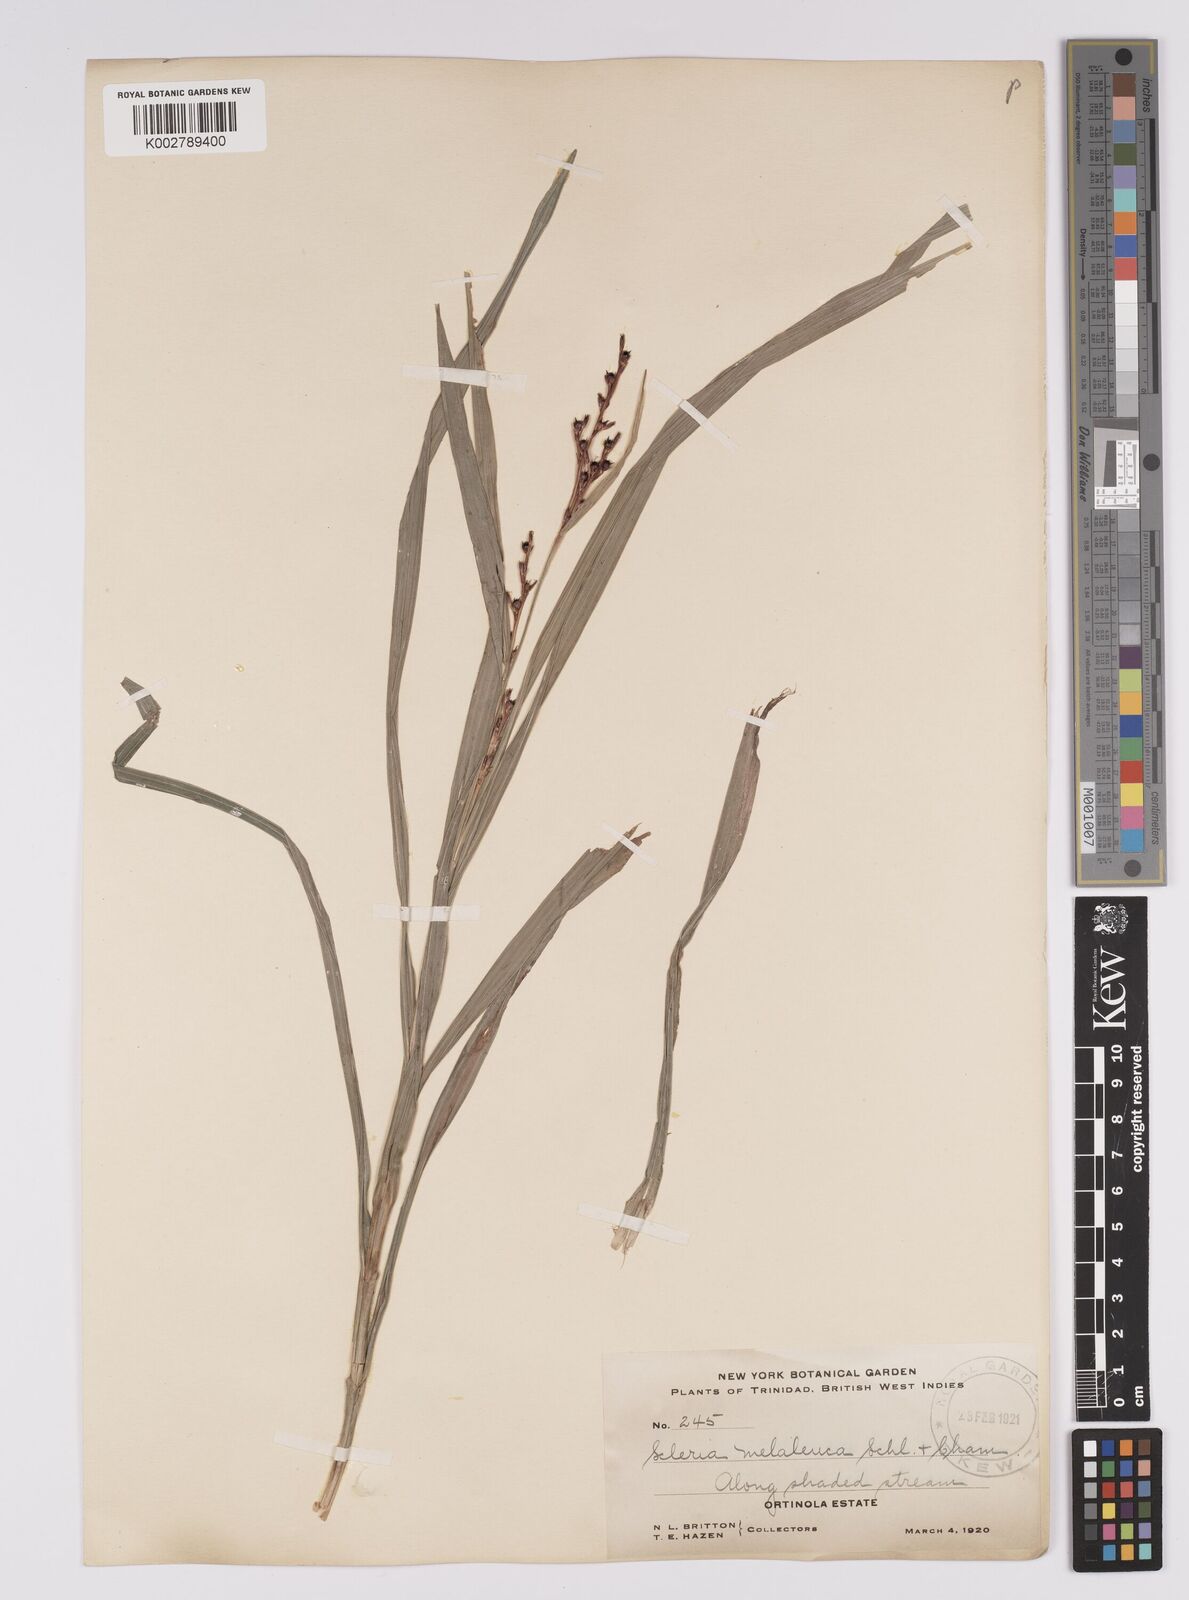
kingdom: Plantae
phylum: Tracheophyta
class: Liliopsida
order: Poales
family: Cyperaceae
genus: Scleria
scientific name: Scleria gaertneri
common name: Cortadera blanca
